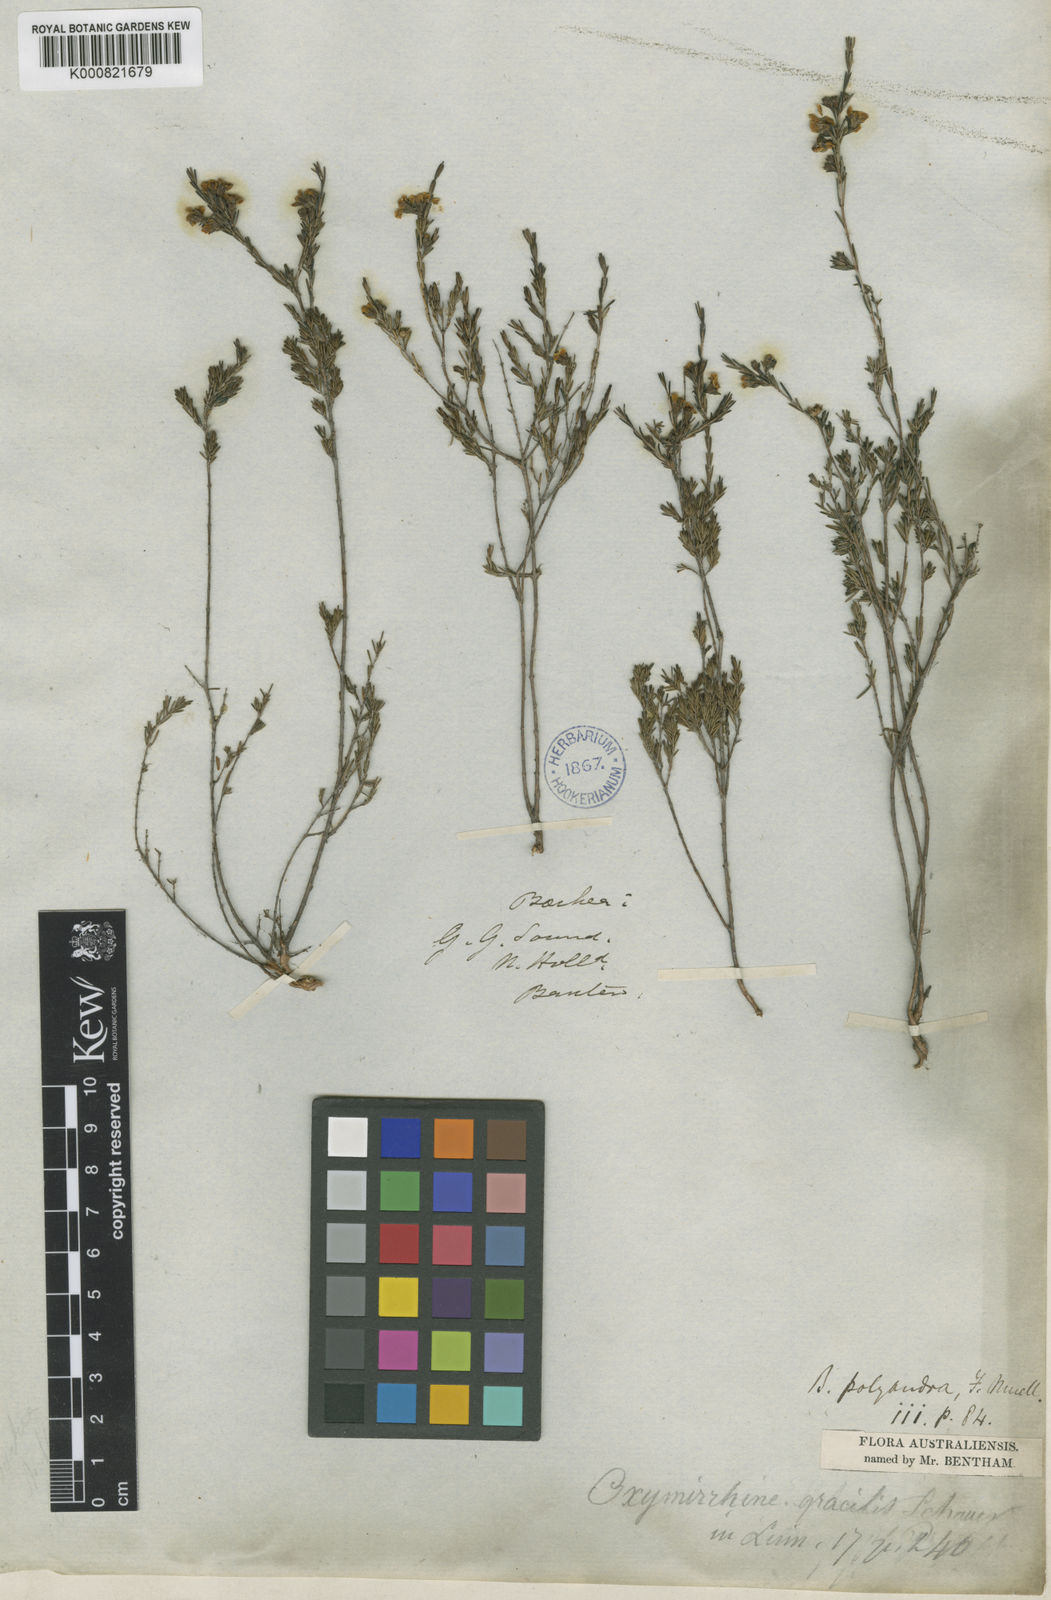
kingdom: Plantae
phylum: Tracheophyta
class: Magnoliopsida
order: Myrtales
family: Myrtaceae
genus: Oxymyrrhine
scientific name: Oxymyrrhine gracilis
